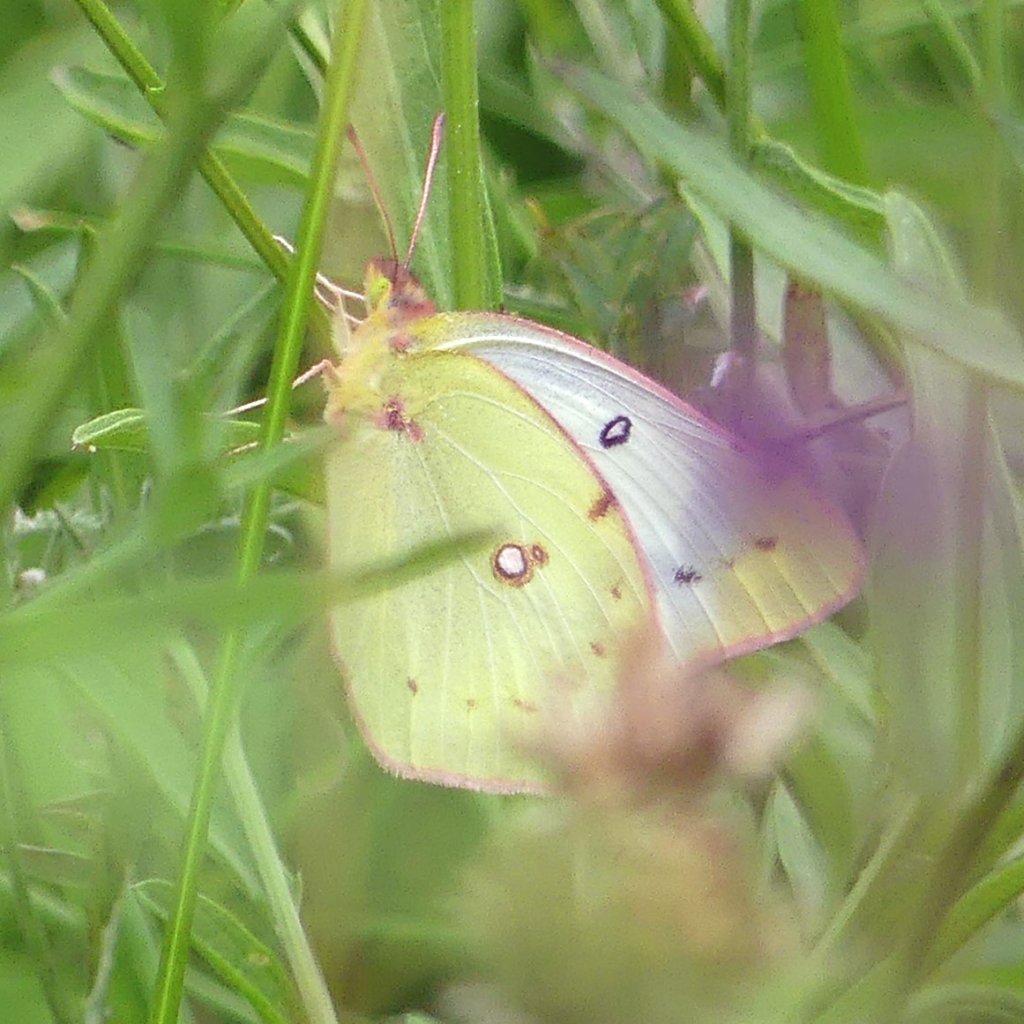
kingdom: Animalia
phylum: Arthropoda
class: Insecta
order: Lepidoptera
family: Pieridae
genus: Colias
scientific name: Colias philodice
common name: Clouded Sulphur
